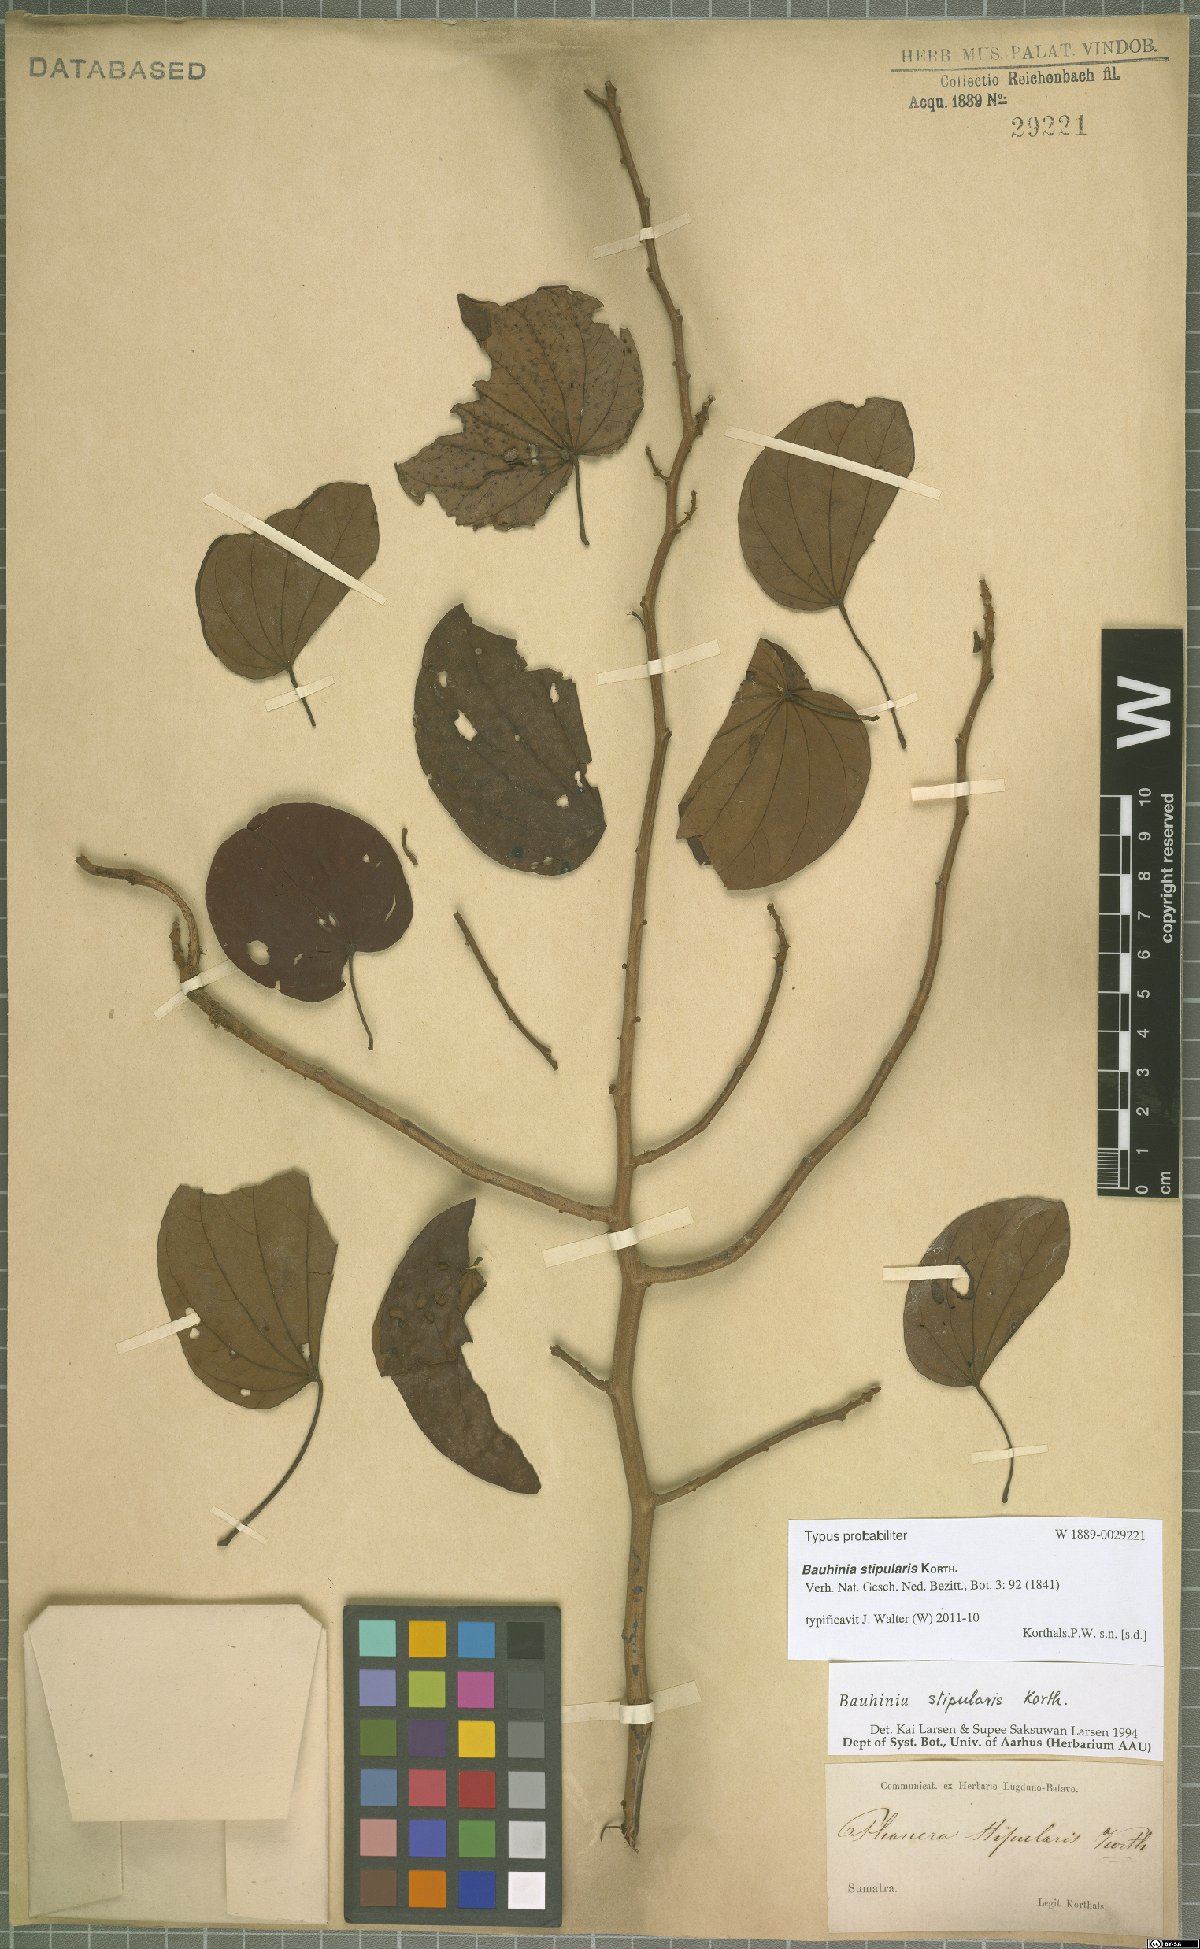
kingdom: Plantae
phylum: Tracheophyta
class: Magnoliopsida
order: Fabales
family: Fabaceae
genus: Phanera
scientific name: Phanera stipularis
